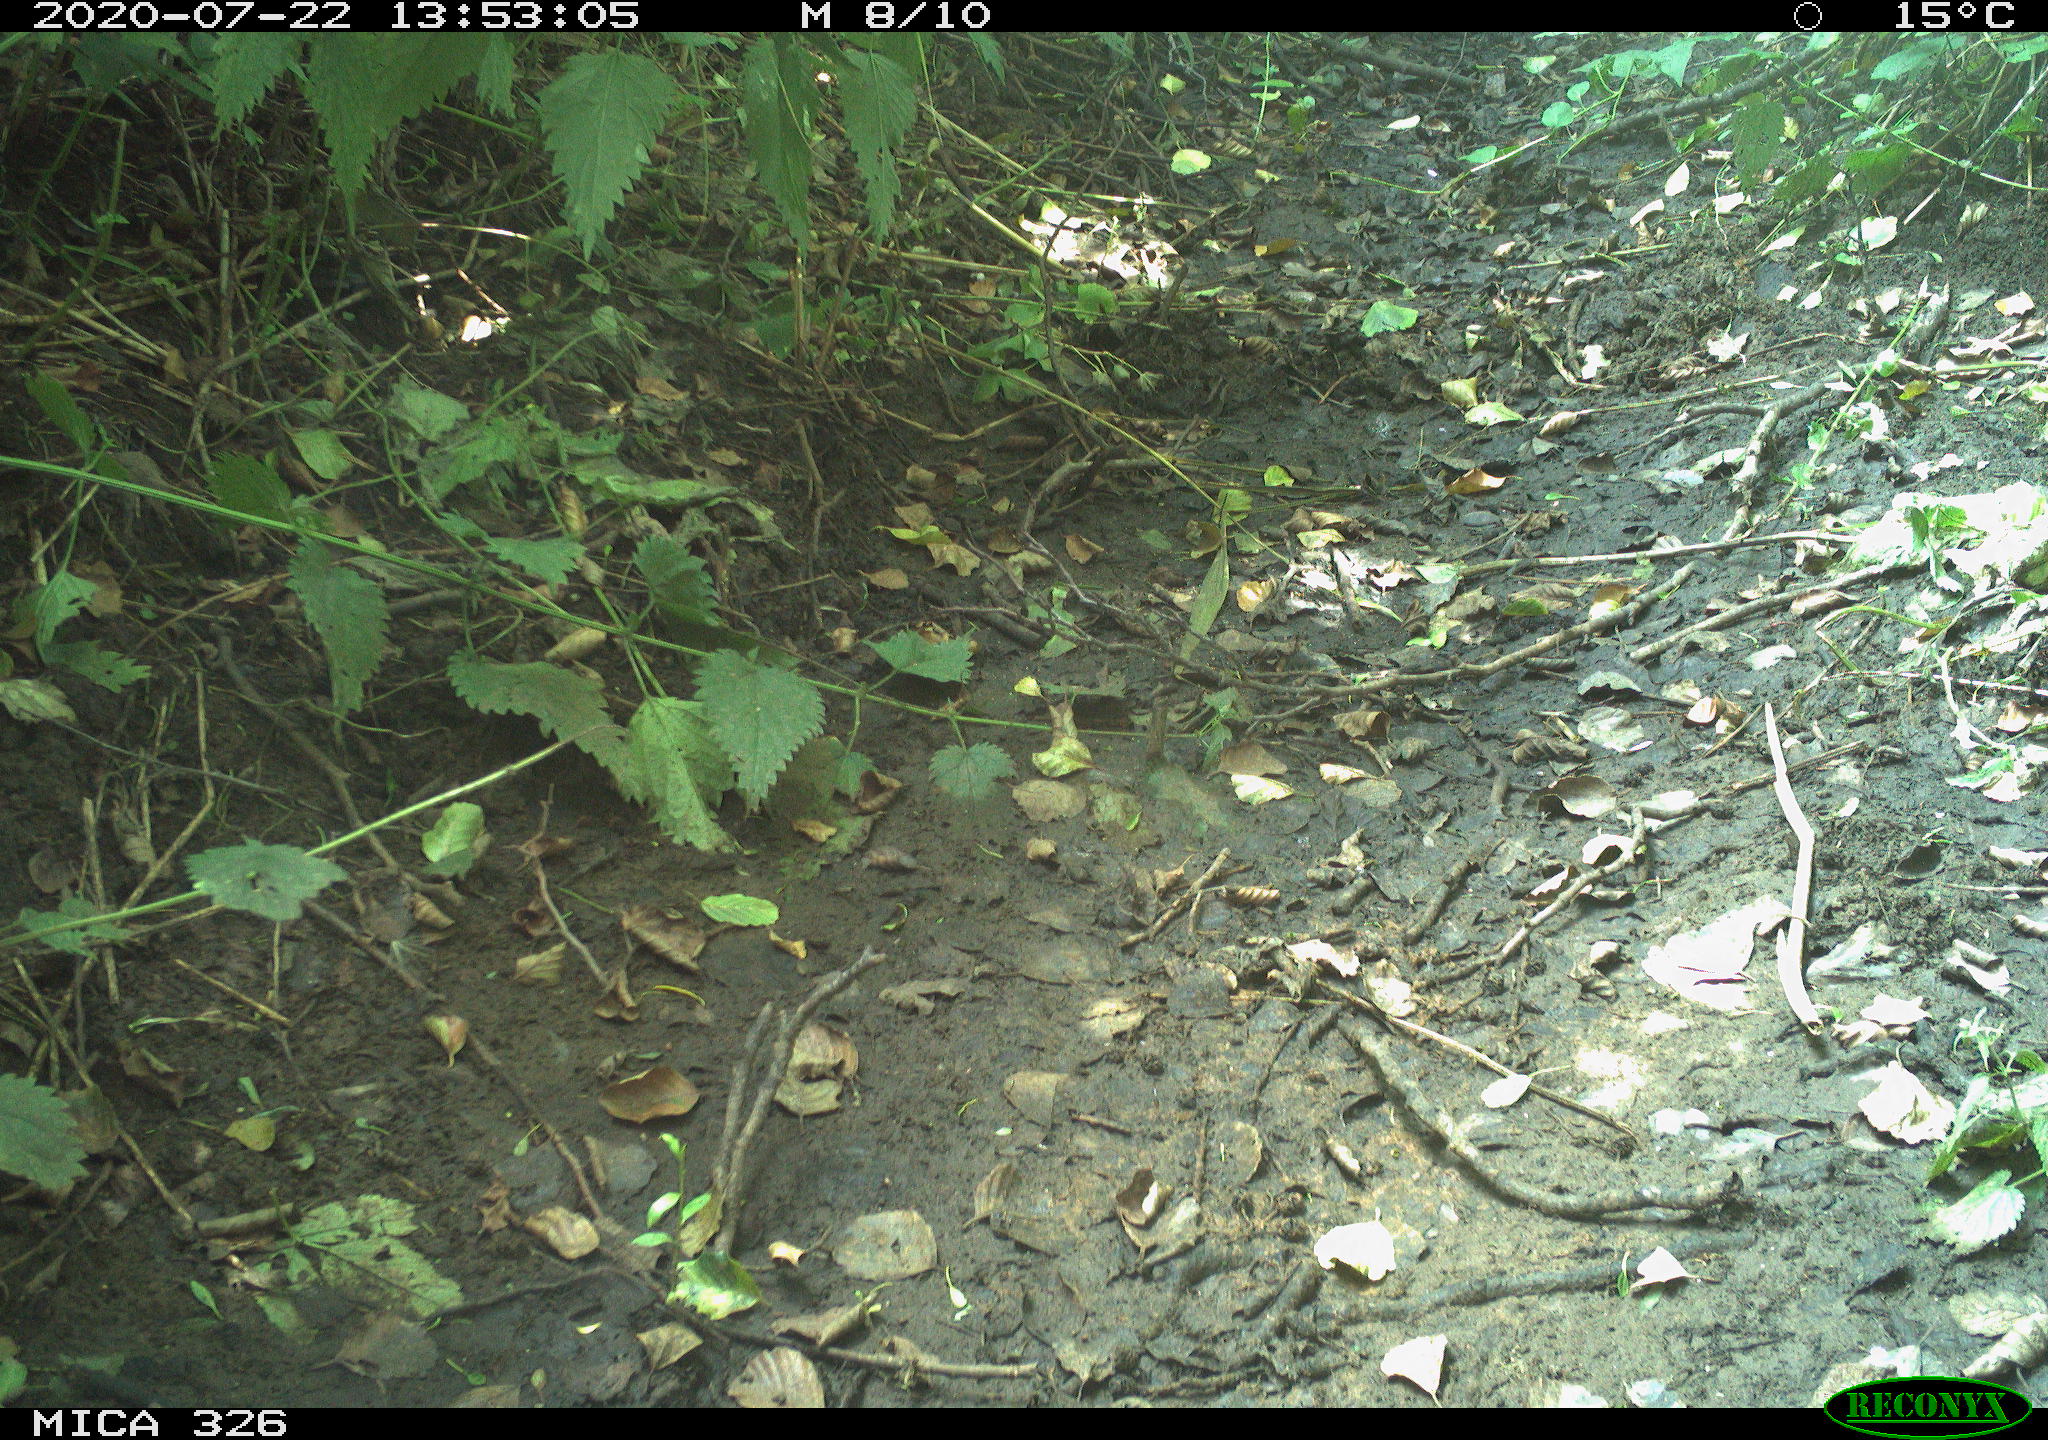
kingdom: Animalia
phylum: Chordata
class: Aves
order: Passeriformes
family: Turdidae
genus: Turdus
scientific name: Turdus merula
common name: Common blackbird
